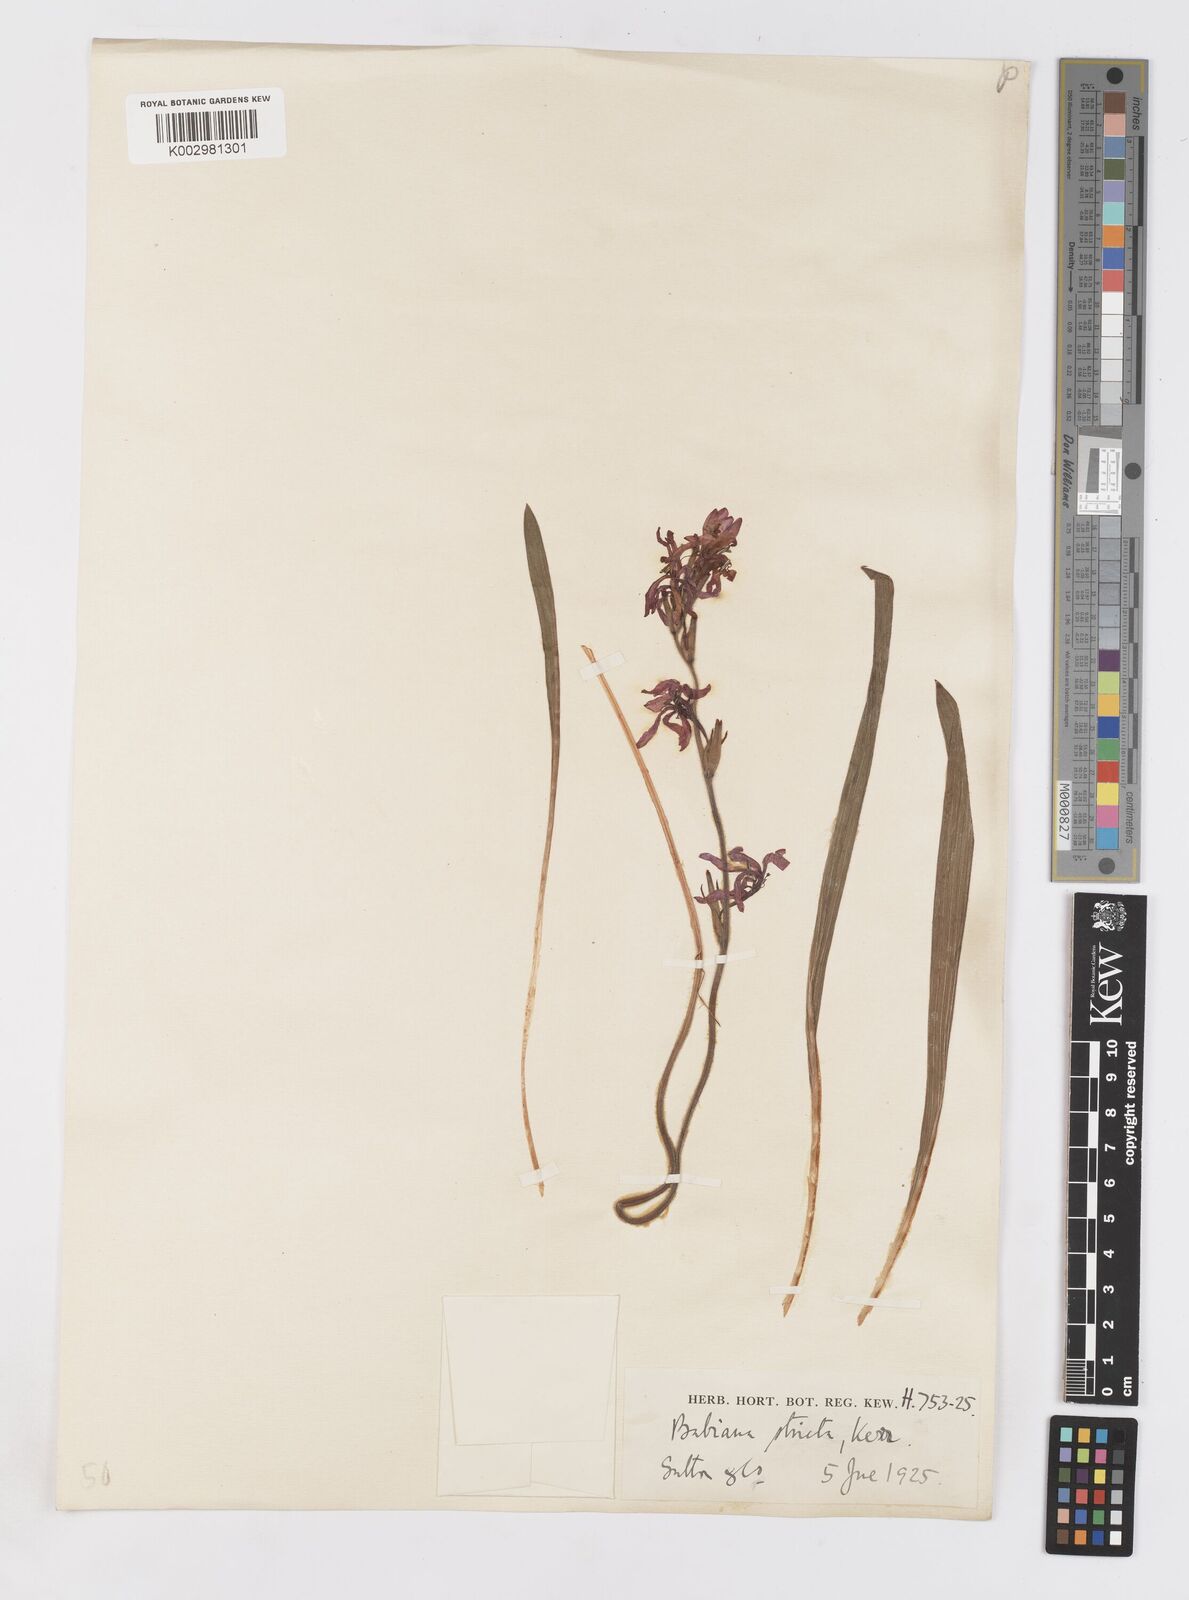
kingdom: Plantae
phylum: Tracheophyta
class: Liliopsida
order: Asparagales
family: Iridaceae
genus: Babiana
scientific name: Babiana nervosa
